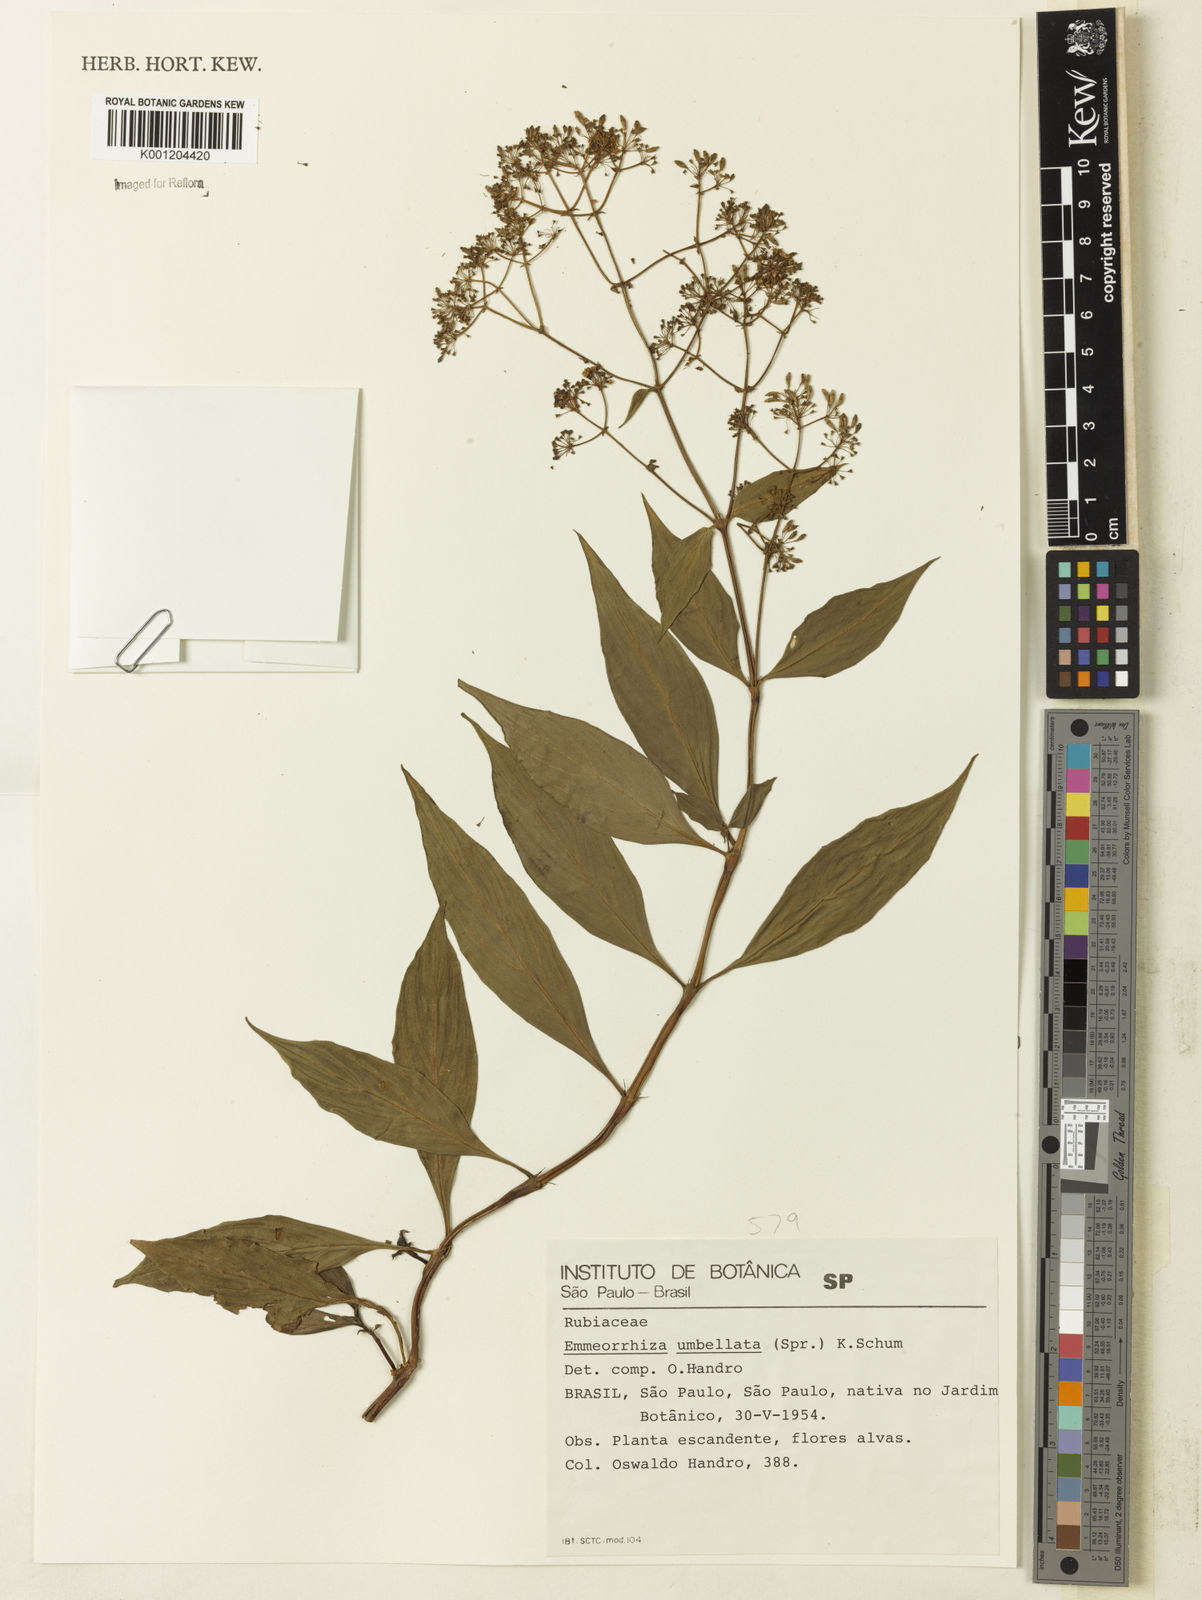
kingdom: Plantae
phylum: Tracheophyta
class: Magnoliopsida
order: Gentianales
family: Rubiaceae
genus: Emmeorhiza
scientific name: Emmeorhiza umbellata
